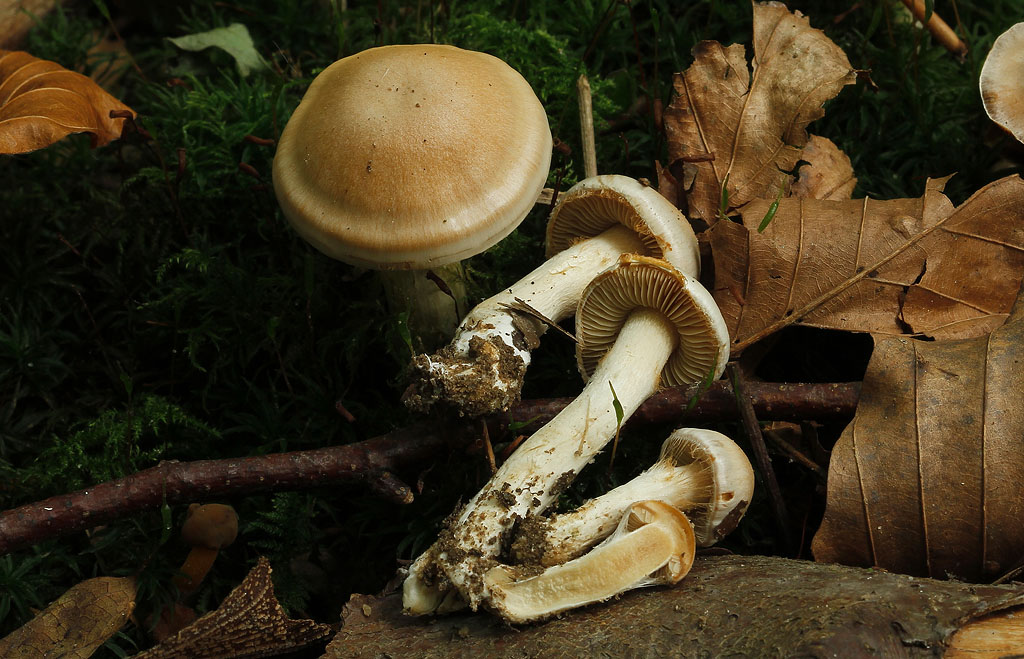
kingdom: Fungi
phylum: Basidiomycota
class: Agaricomycetes
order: Agaricales
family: Cortinariaceae
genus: Thaxterogaster
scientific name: Thaxterogaster leucoluteolus
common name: isabella slørhat
